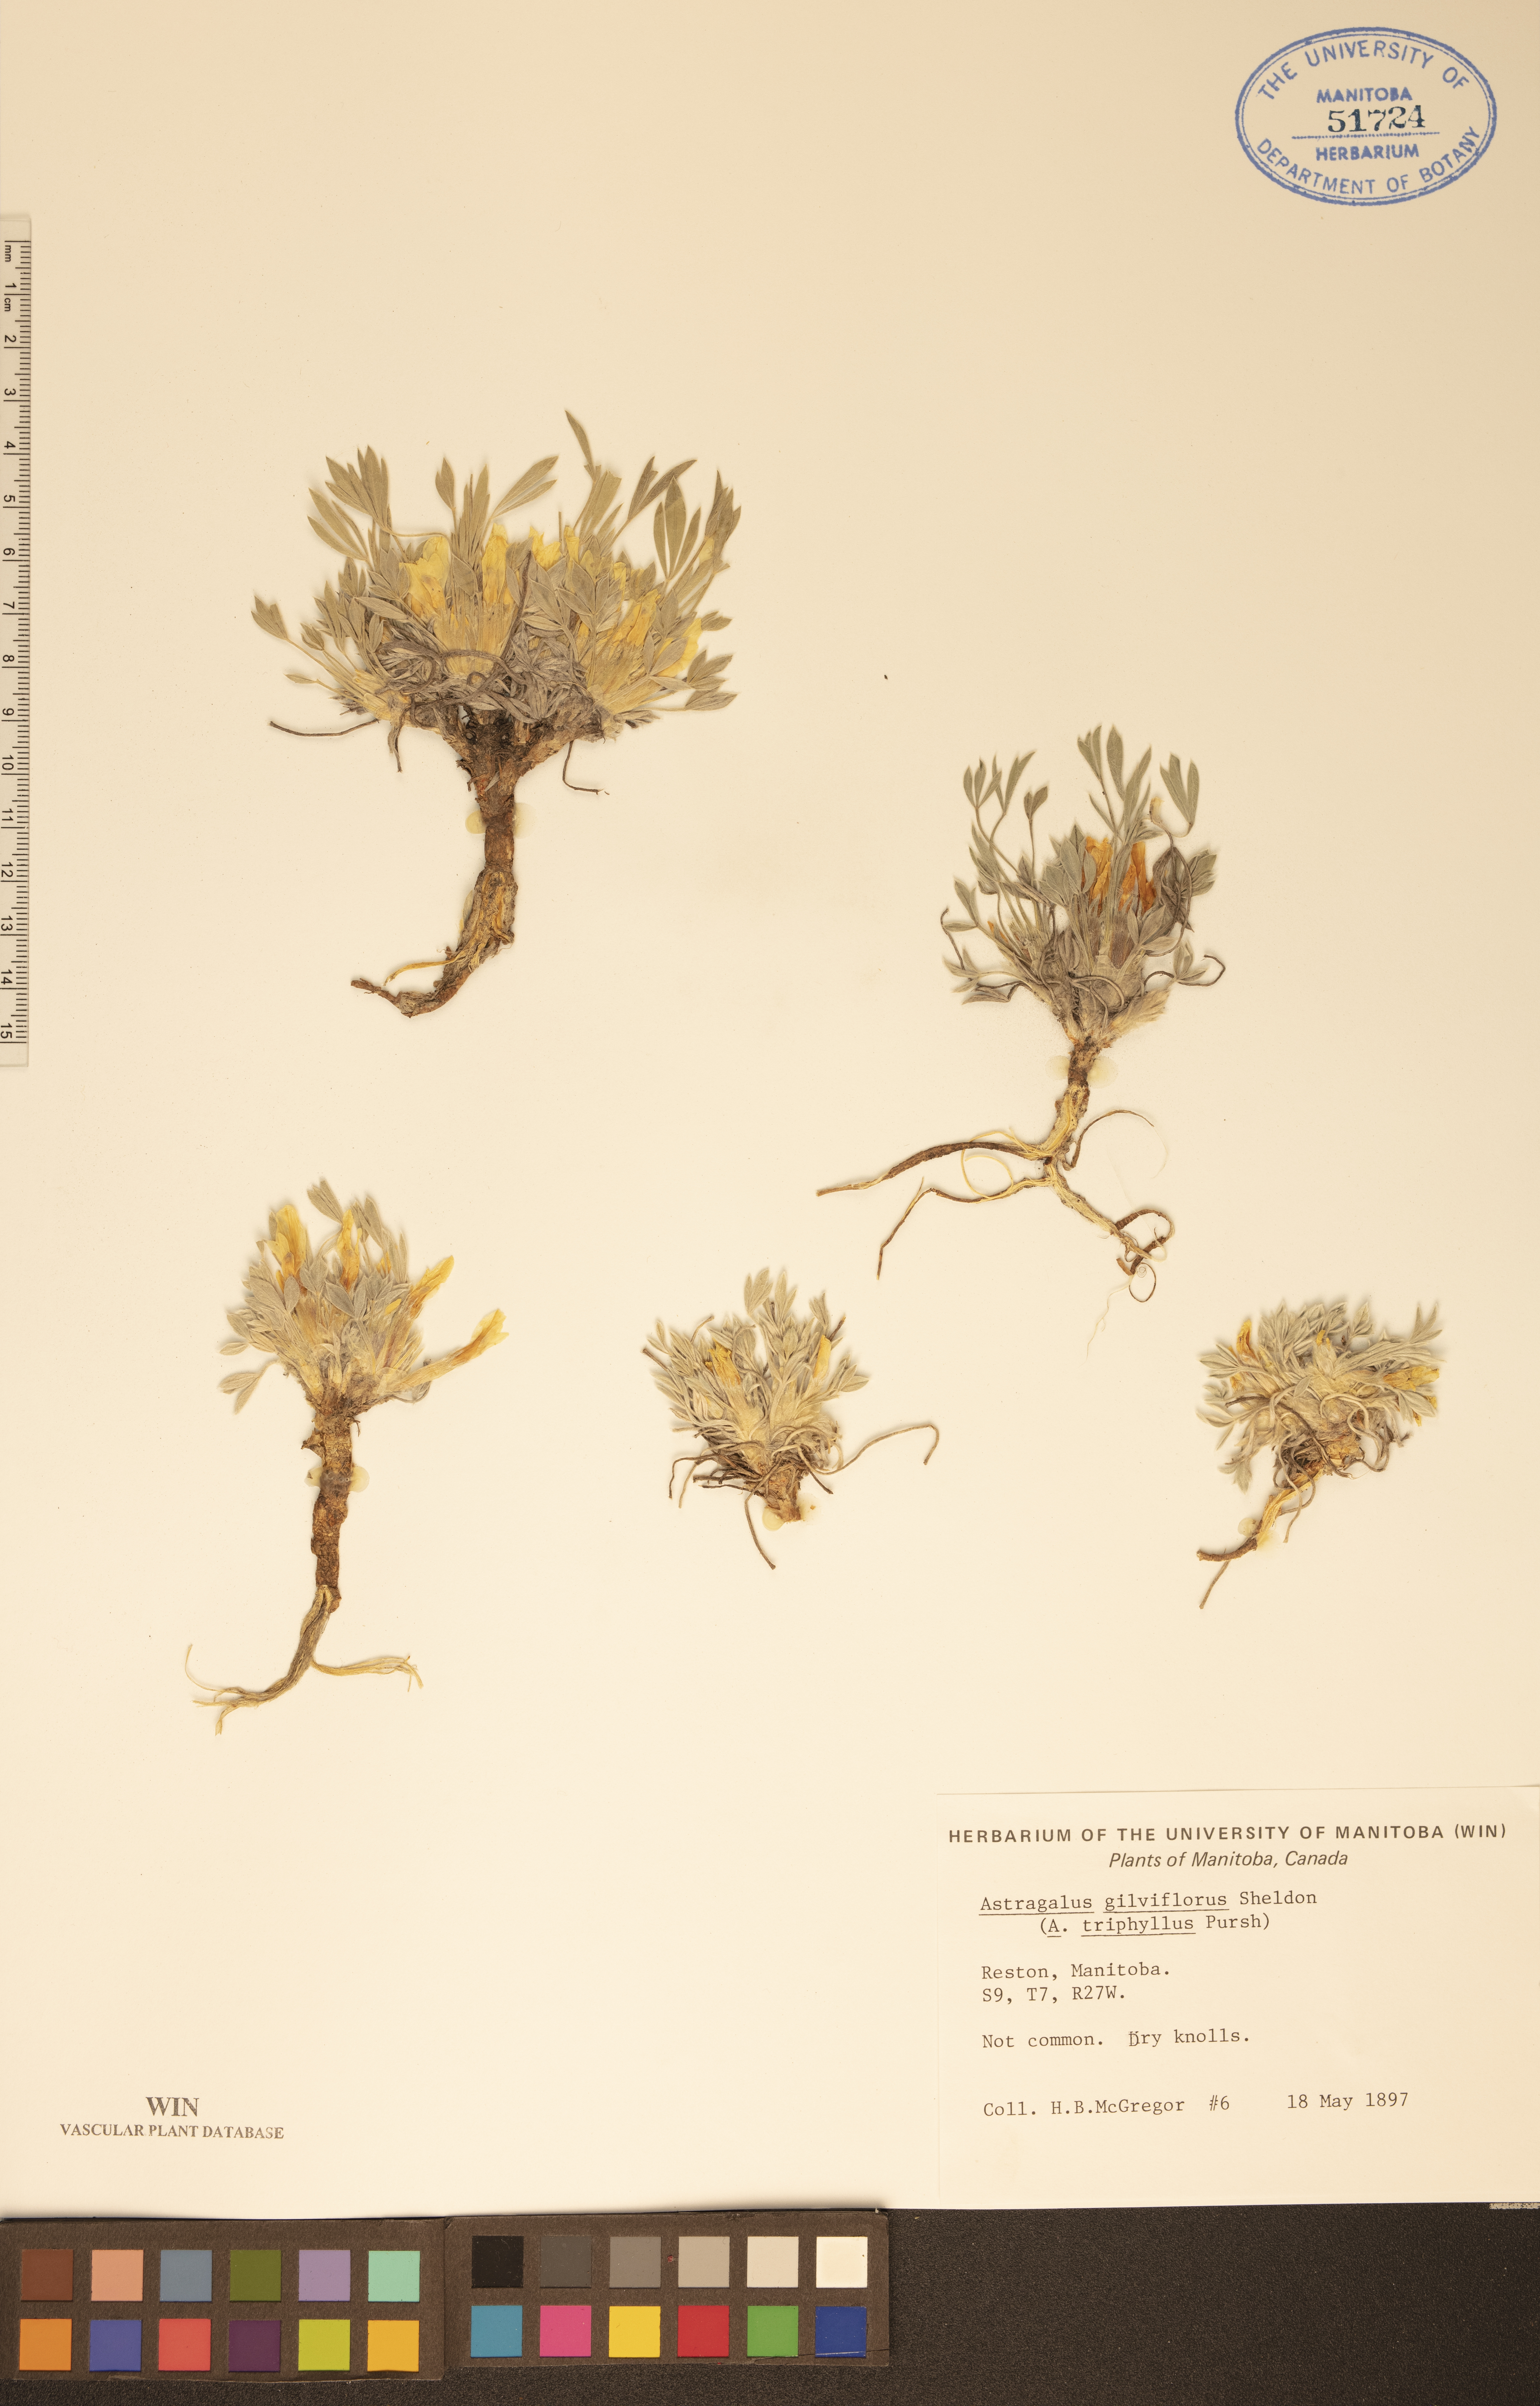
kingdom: Plantae
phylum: Tracheophyta
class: Magnoliopsida
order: Fabales
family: Fabaceae
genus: Astragalus
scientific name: Astragalus gilviflorus
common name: Cushion milk-vetch
